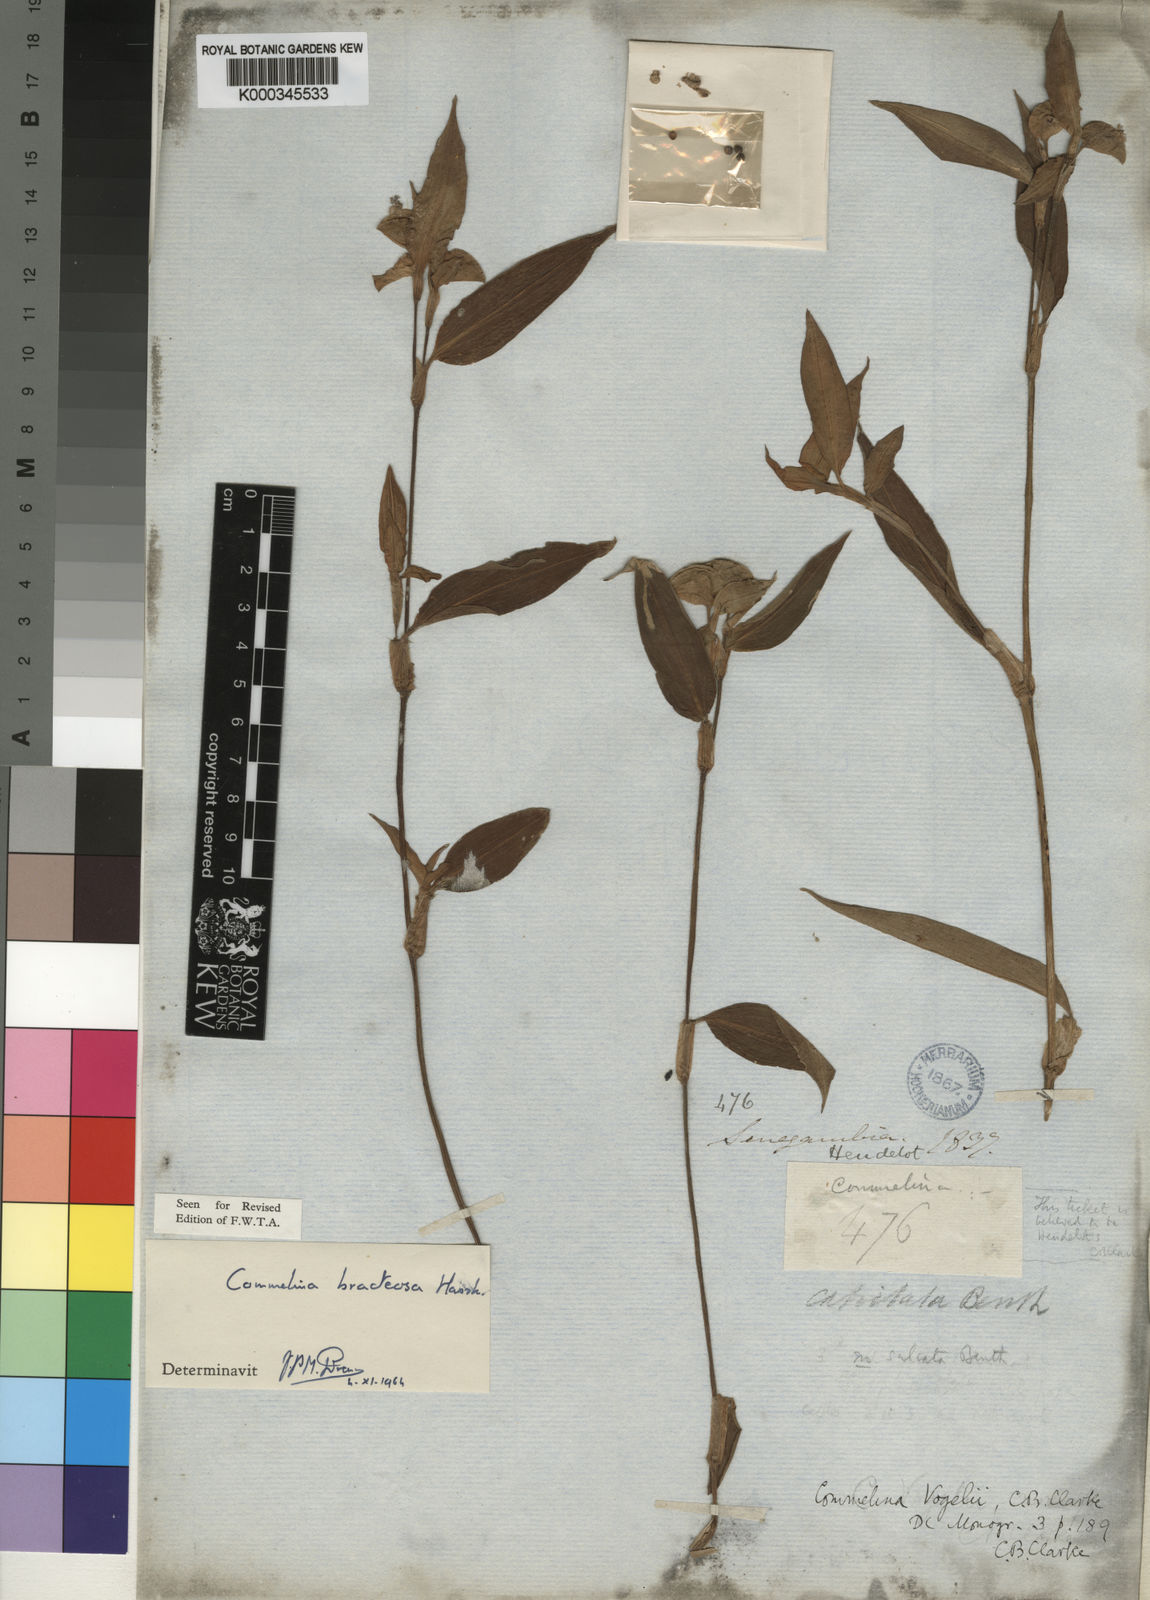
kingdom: Plantae
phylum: Tracheophyta
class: Liliopsida
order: Commelinales
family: Commelinaceae
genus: Commelina
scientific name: Commelina bracteosa
